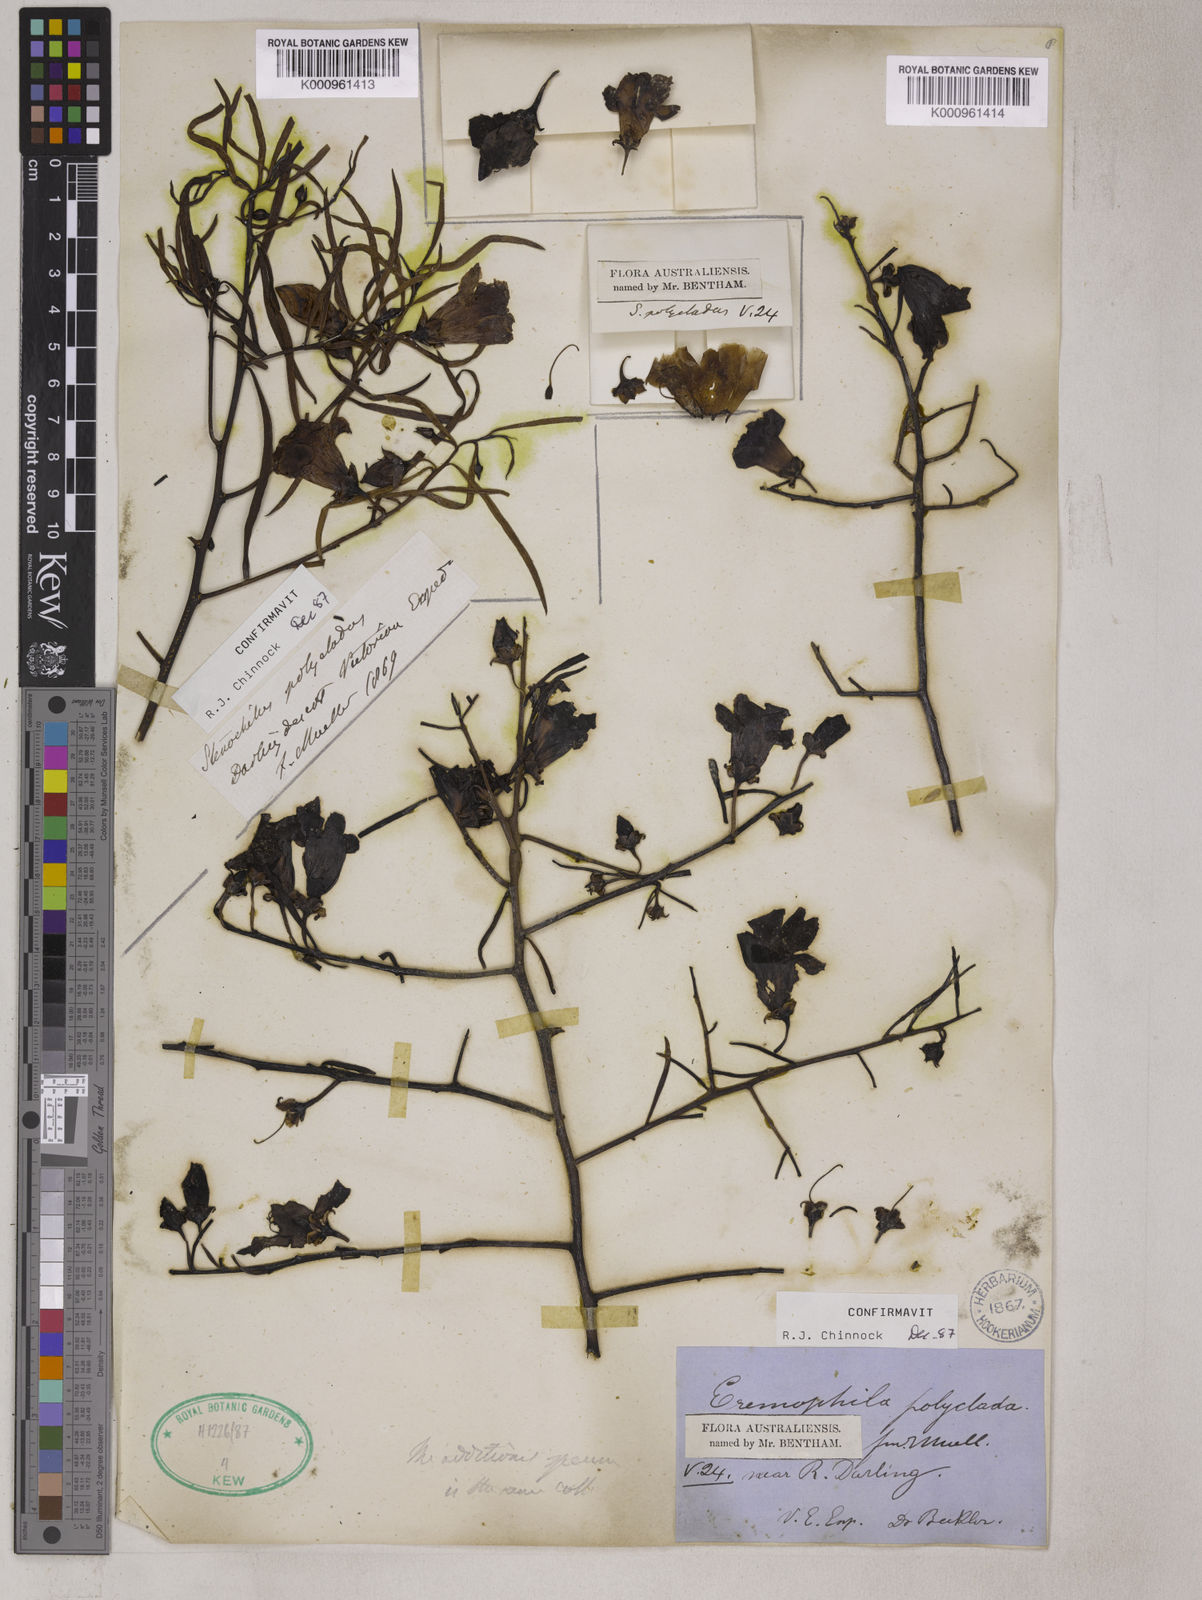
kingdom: Plantae
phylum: Tracheophyta
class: Magnoliopsida
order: Lamiales
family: Scrophulariaceae
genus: Eremophila
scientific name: Eremophila polyclada
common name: Lignum-fuchsia
